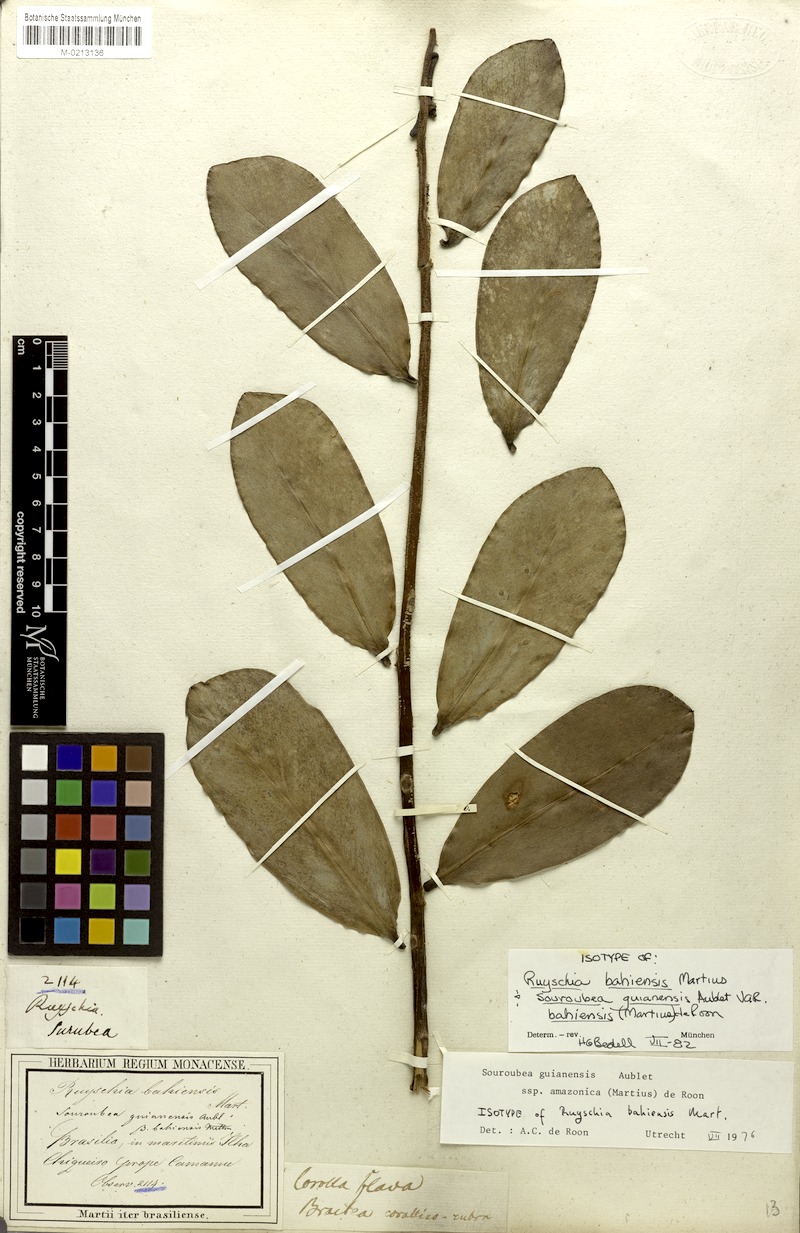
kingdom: Plantae
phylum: Tracheophyta
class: Magnoliopsida
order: Ericales
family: Marcgraviaceae
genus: Souroubea
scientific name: Souroubea guianensis
